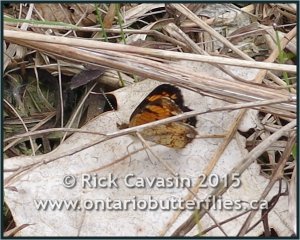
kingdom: Animalia
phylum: Arthropoda
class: Insecta
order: Lepidoptera
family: Nymphalidae
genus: Phyciodes
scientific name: Phyciodes tharos
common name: Pearl Crescent
